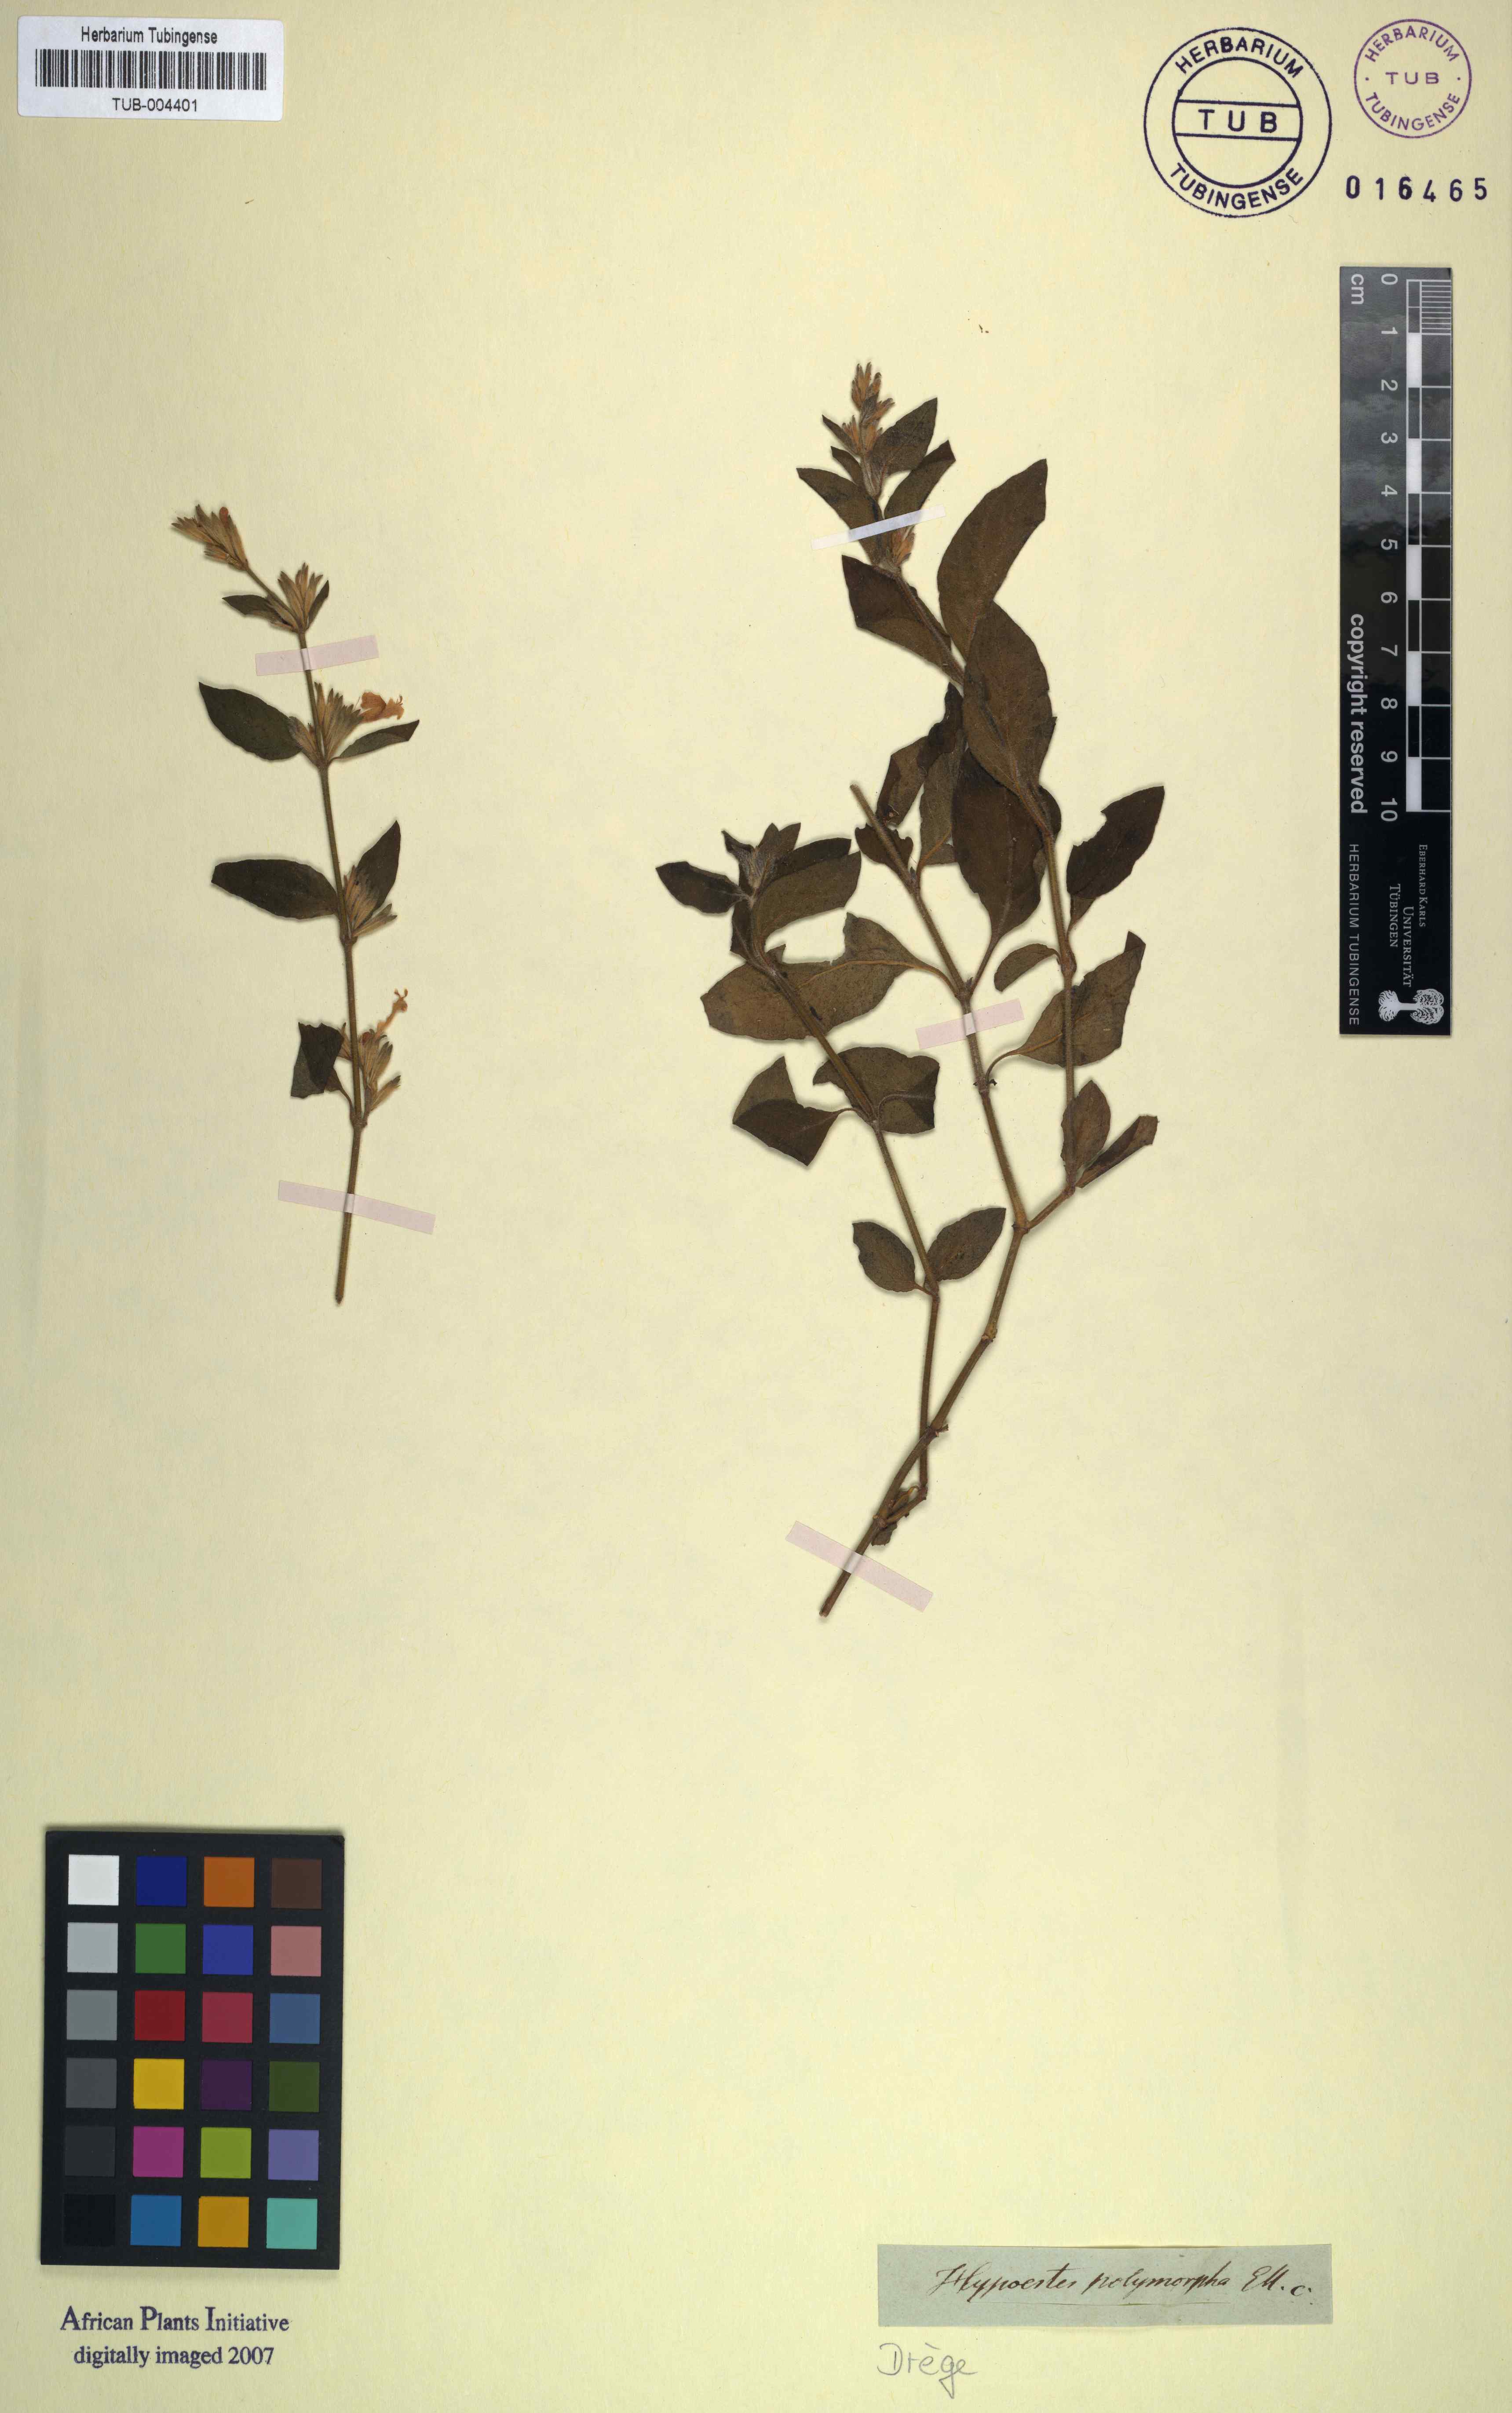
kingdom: Plantae
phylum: Tracheophyta
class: Magnoliopsida
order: Lamiales
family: Acanthaceae
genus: Hypoestes
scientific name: Hypoestes aristata
